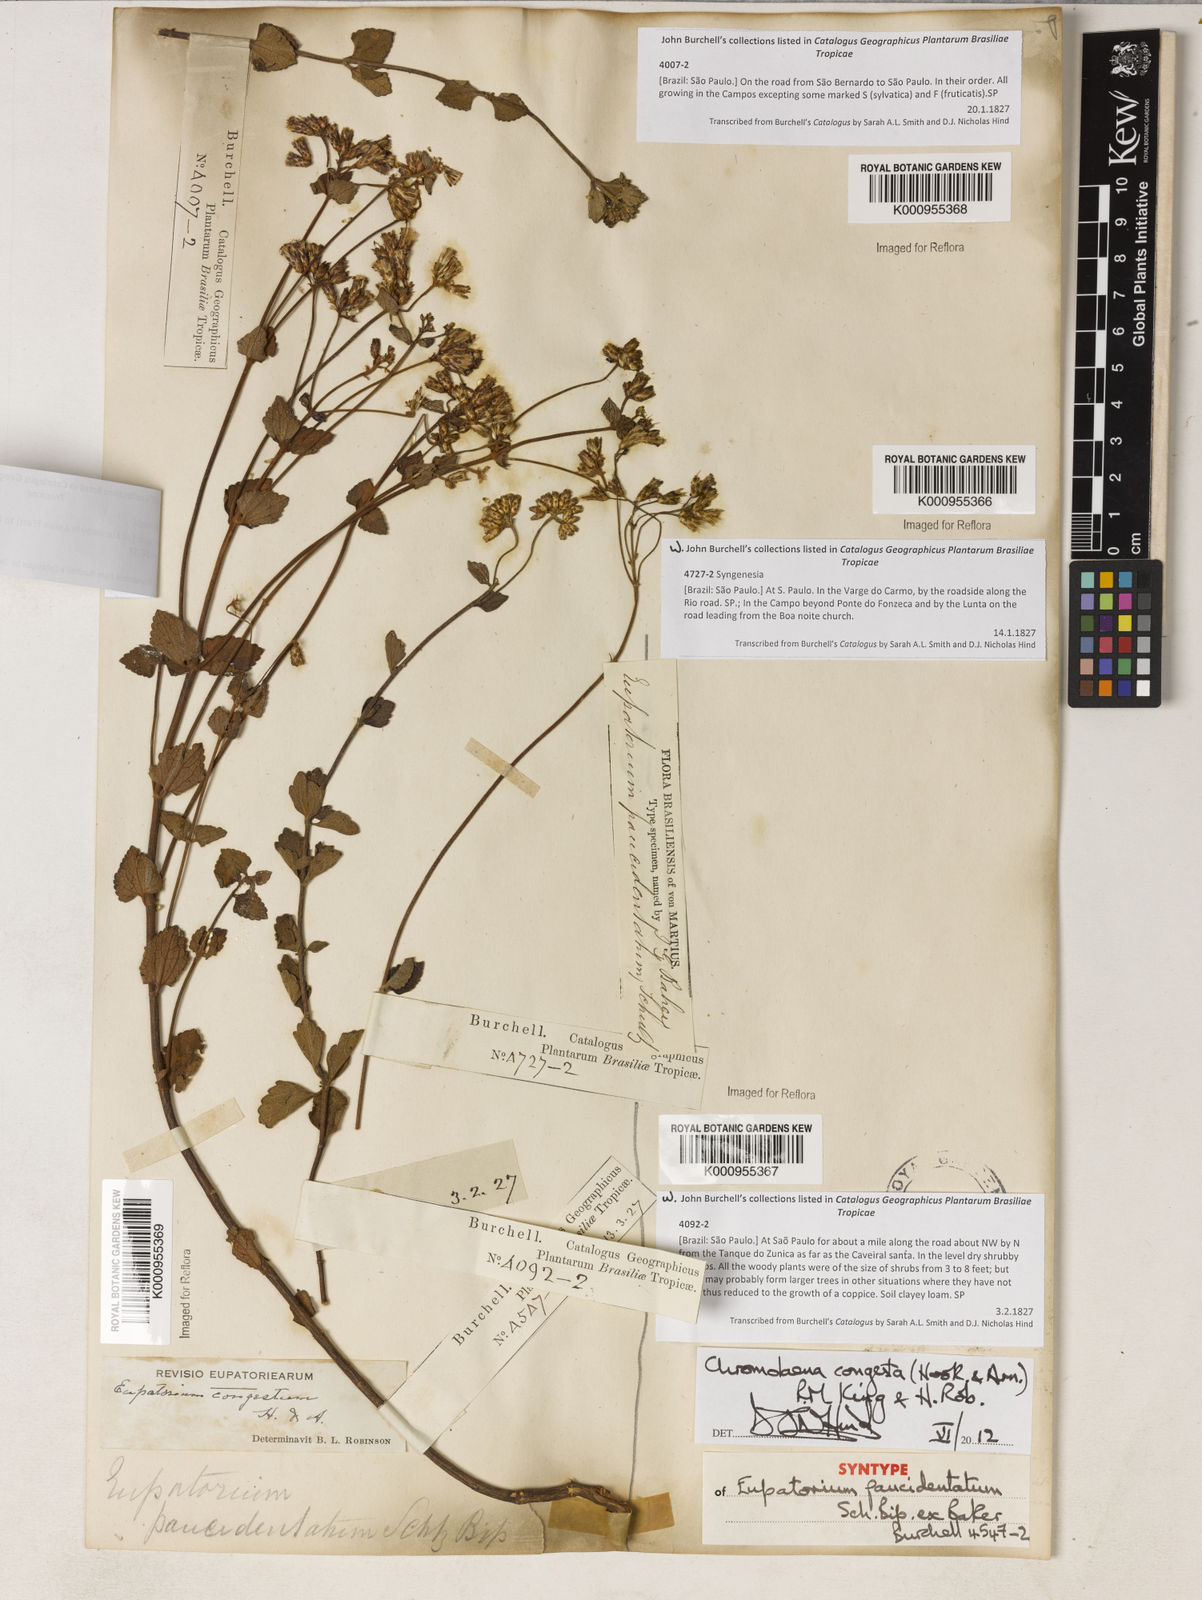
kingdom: Plantae
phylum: Tracheophyta
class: Magnoliopsida
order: Asterales
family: Asteraceae
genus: Chromolaena
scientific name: Chromolaena congesta
